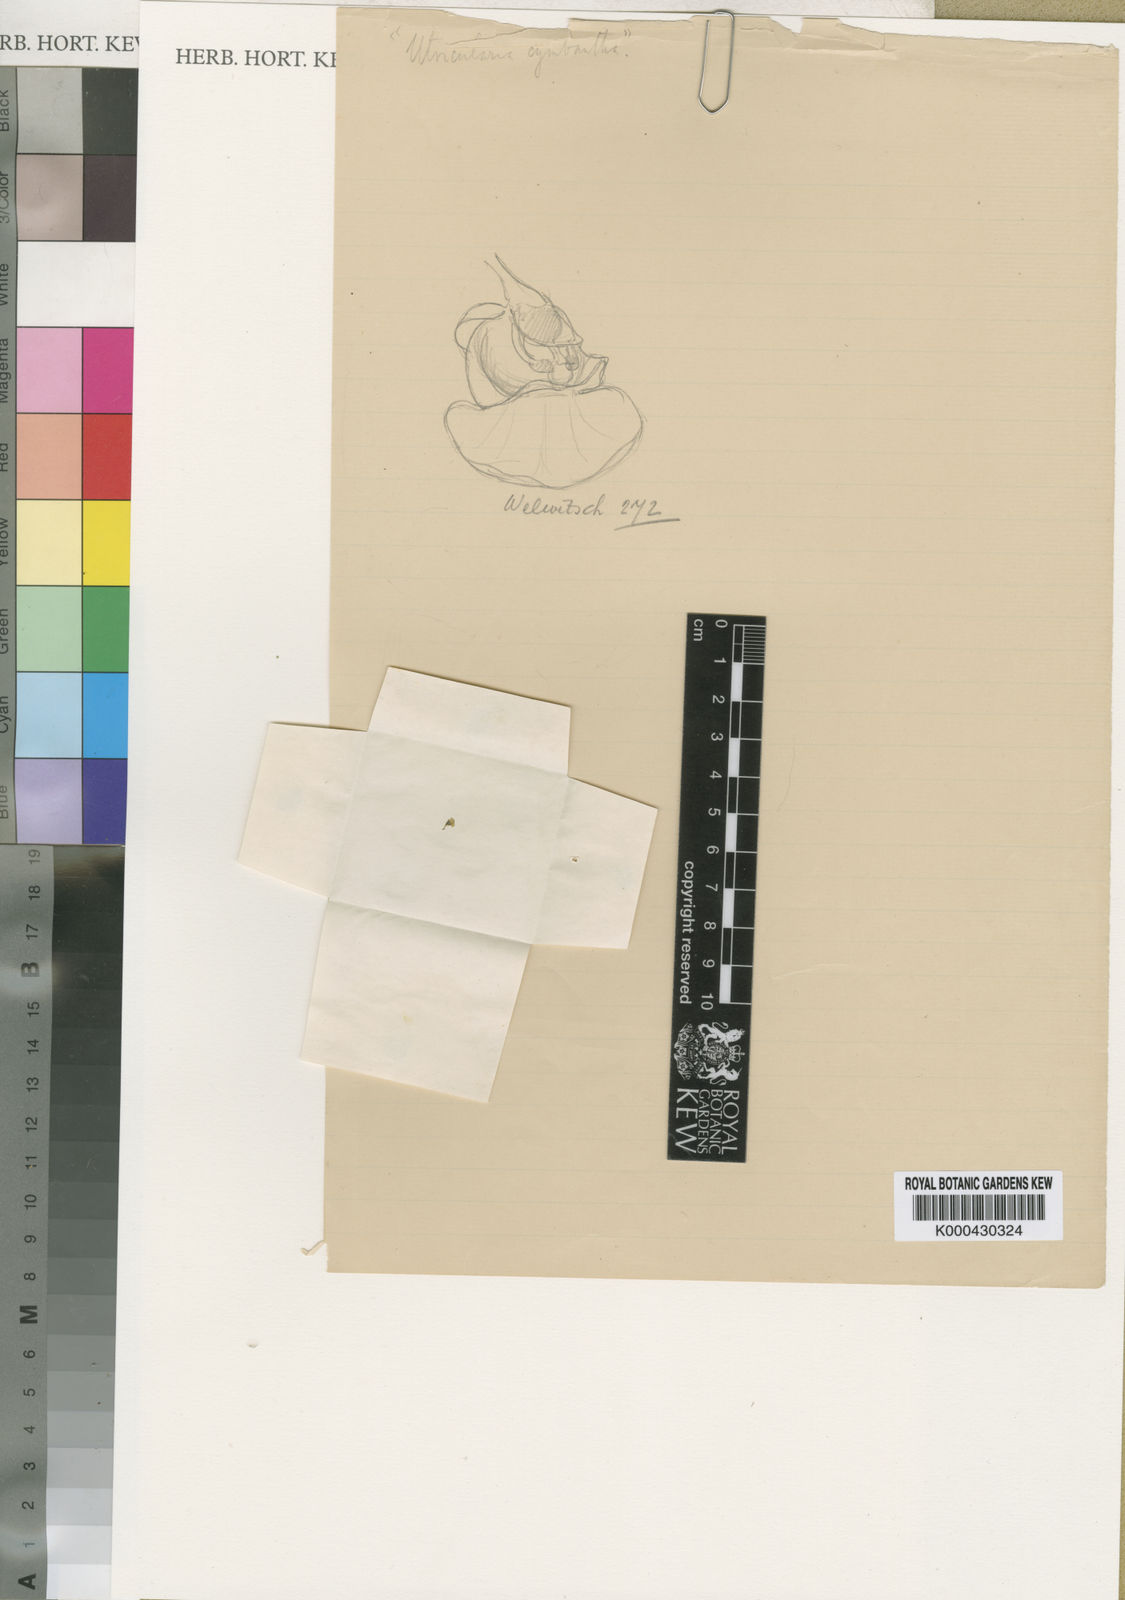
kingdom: Plantae
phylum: Tracheophyta
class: Magnoliopsida
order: Lamiales
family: Lentibulariaceae
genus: Utricularia
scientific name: Utricularia cymbantha
